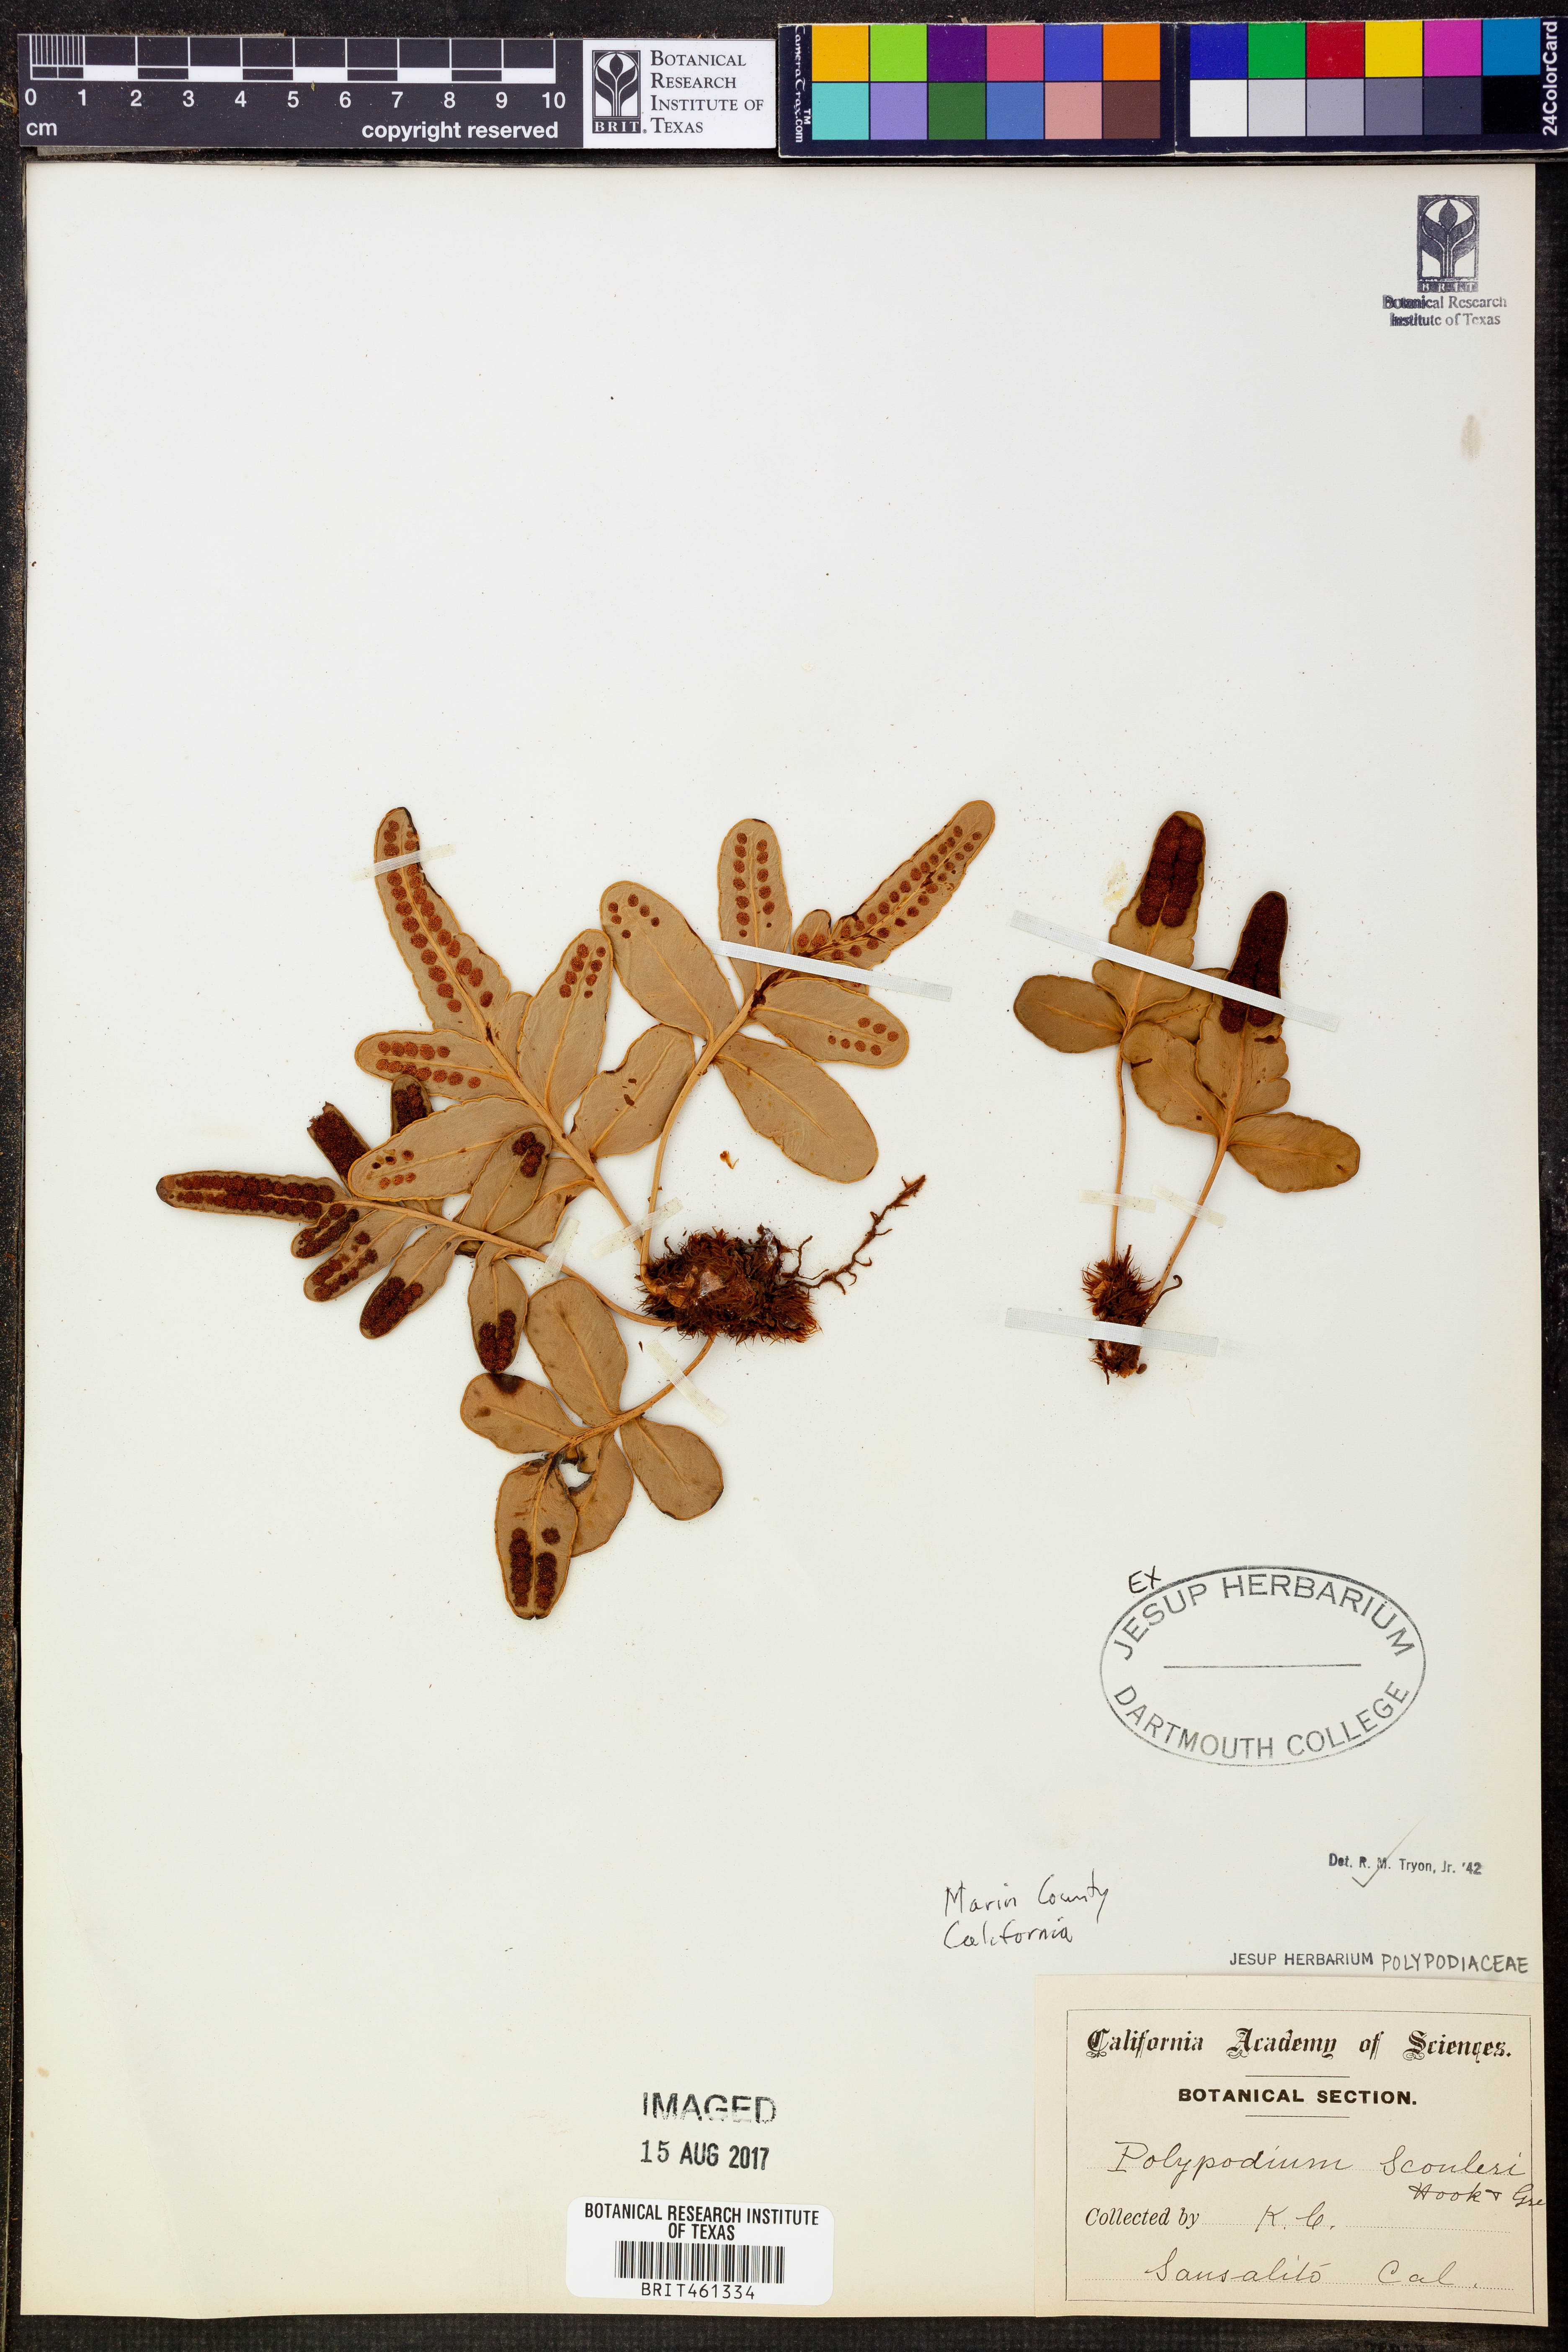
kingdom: Plantae
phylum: Tracheophyta
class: Polypodiopsida
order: Polypodiales
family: Polypodiaceae
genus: Polypodium
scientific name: Polypodium scouleri
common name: Scouler's polypody
